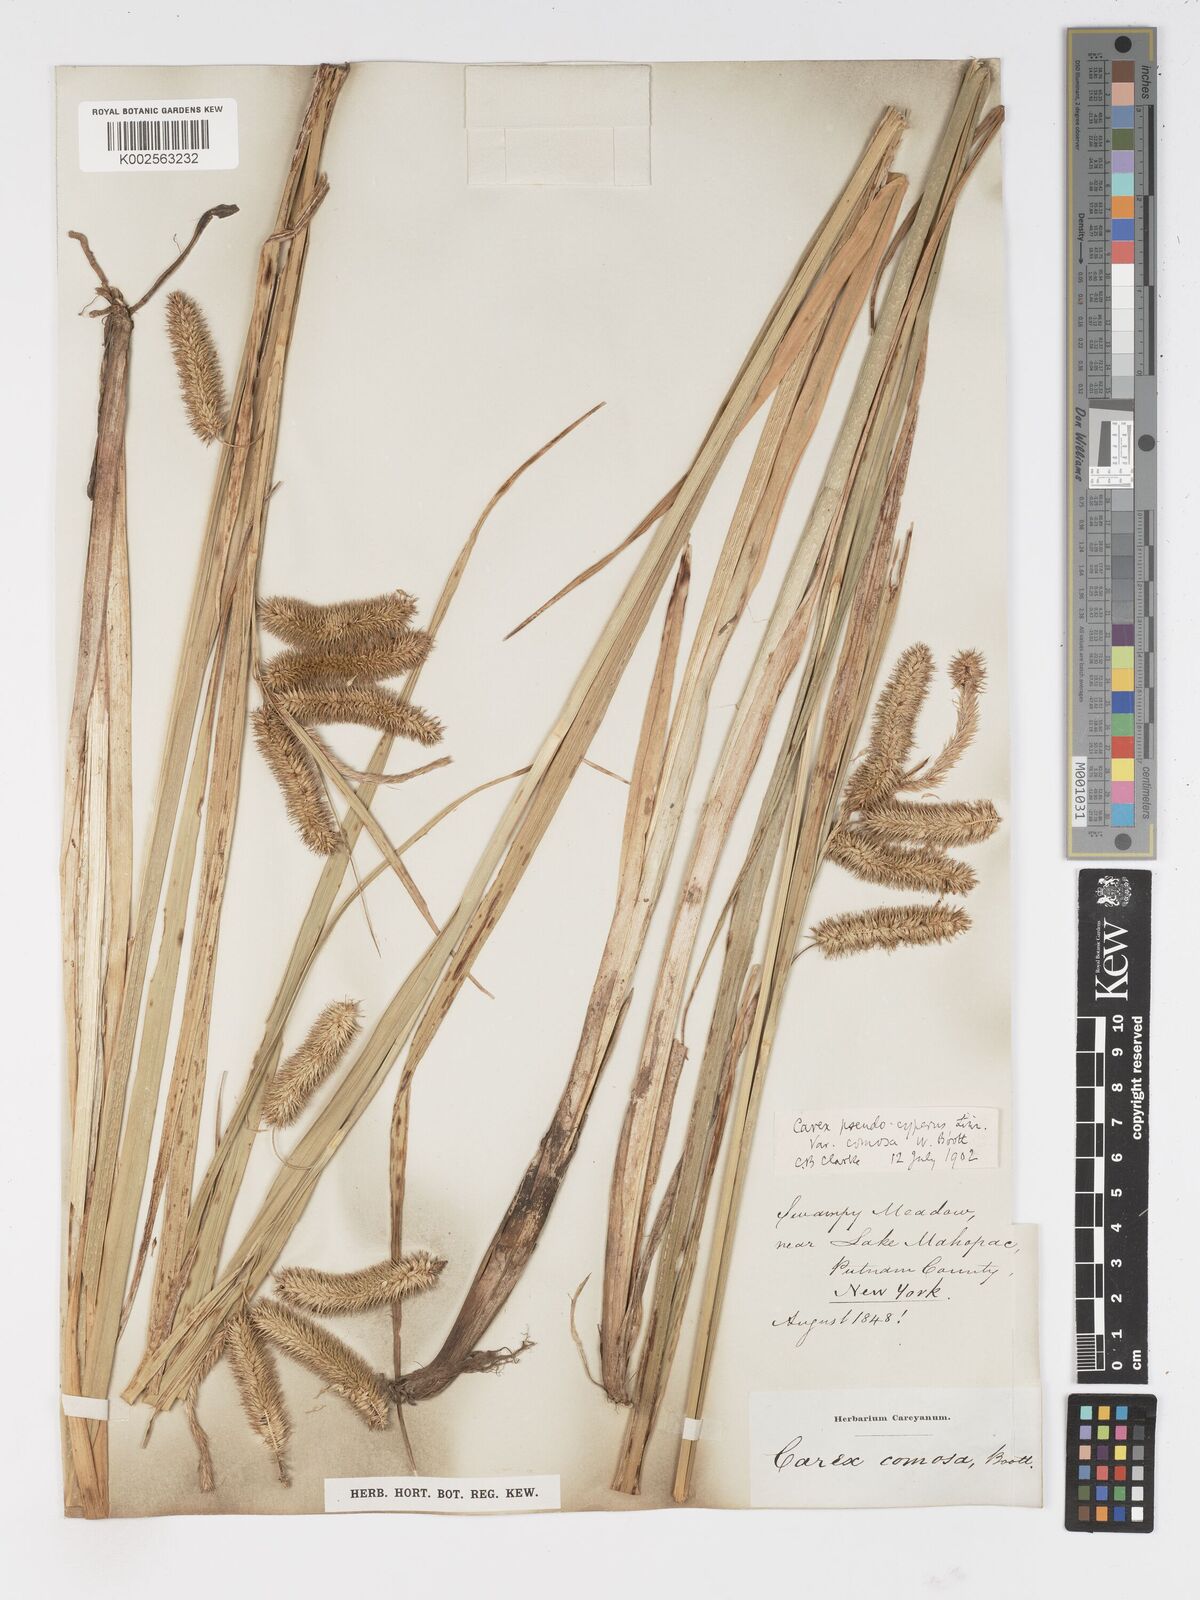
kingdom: Plantae
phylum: Tracheophyta
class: Liliopsida
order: Poales
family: Cyperaceae
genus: Carex
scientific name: Carex comosa
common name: Bristly sedge
